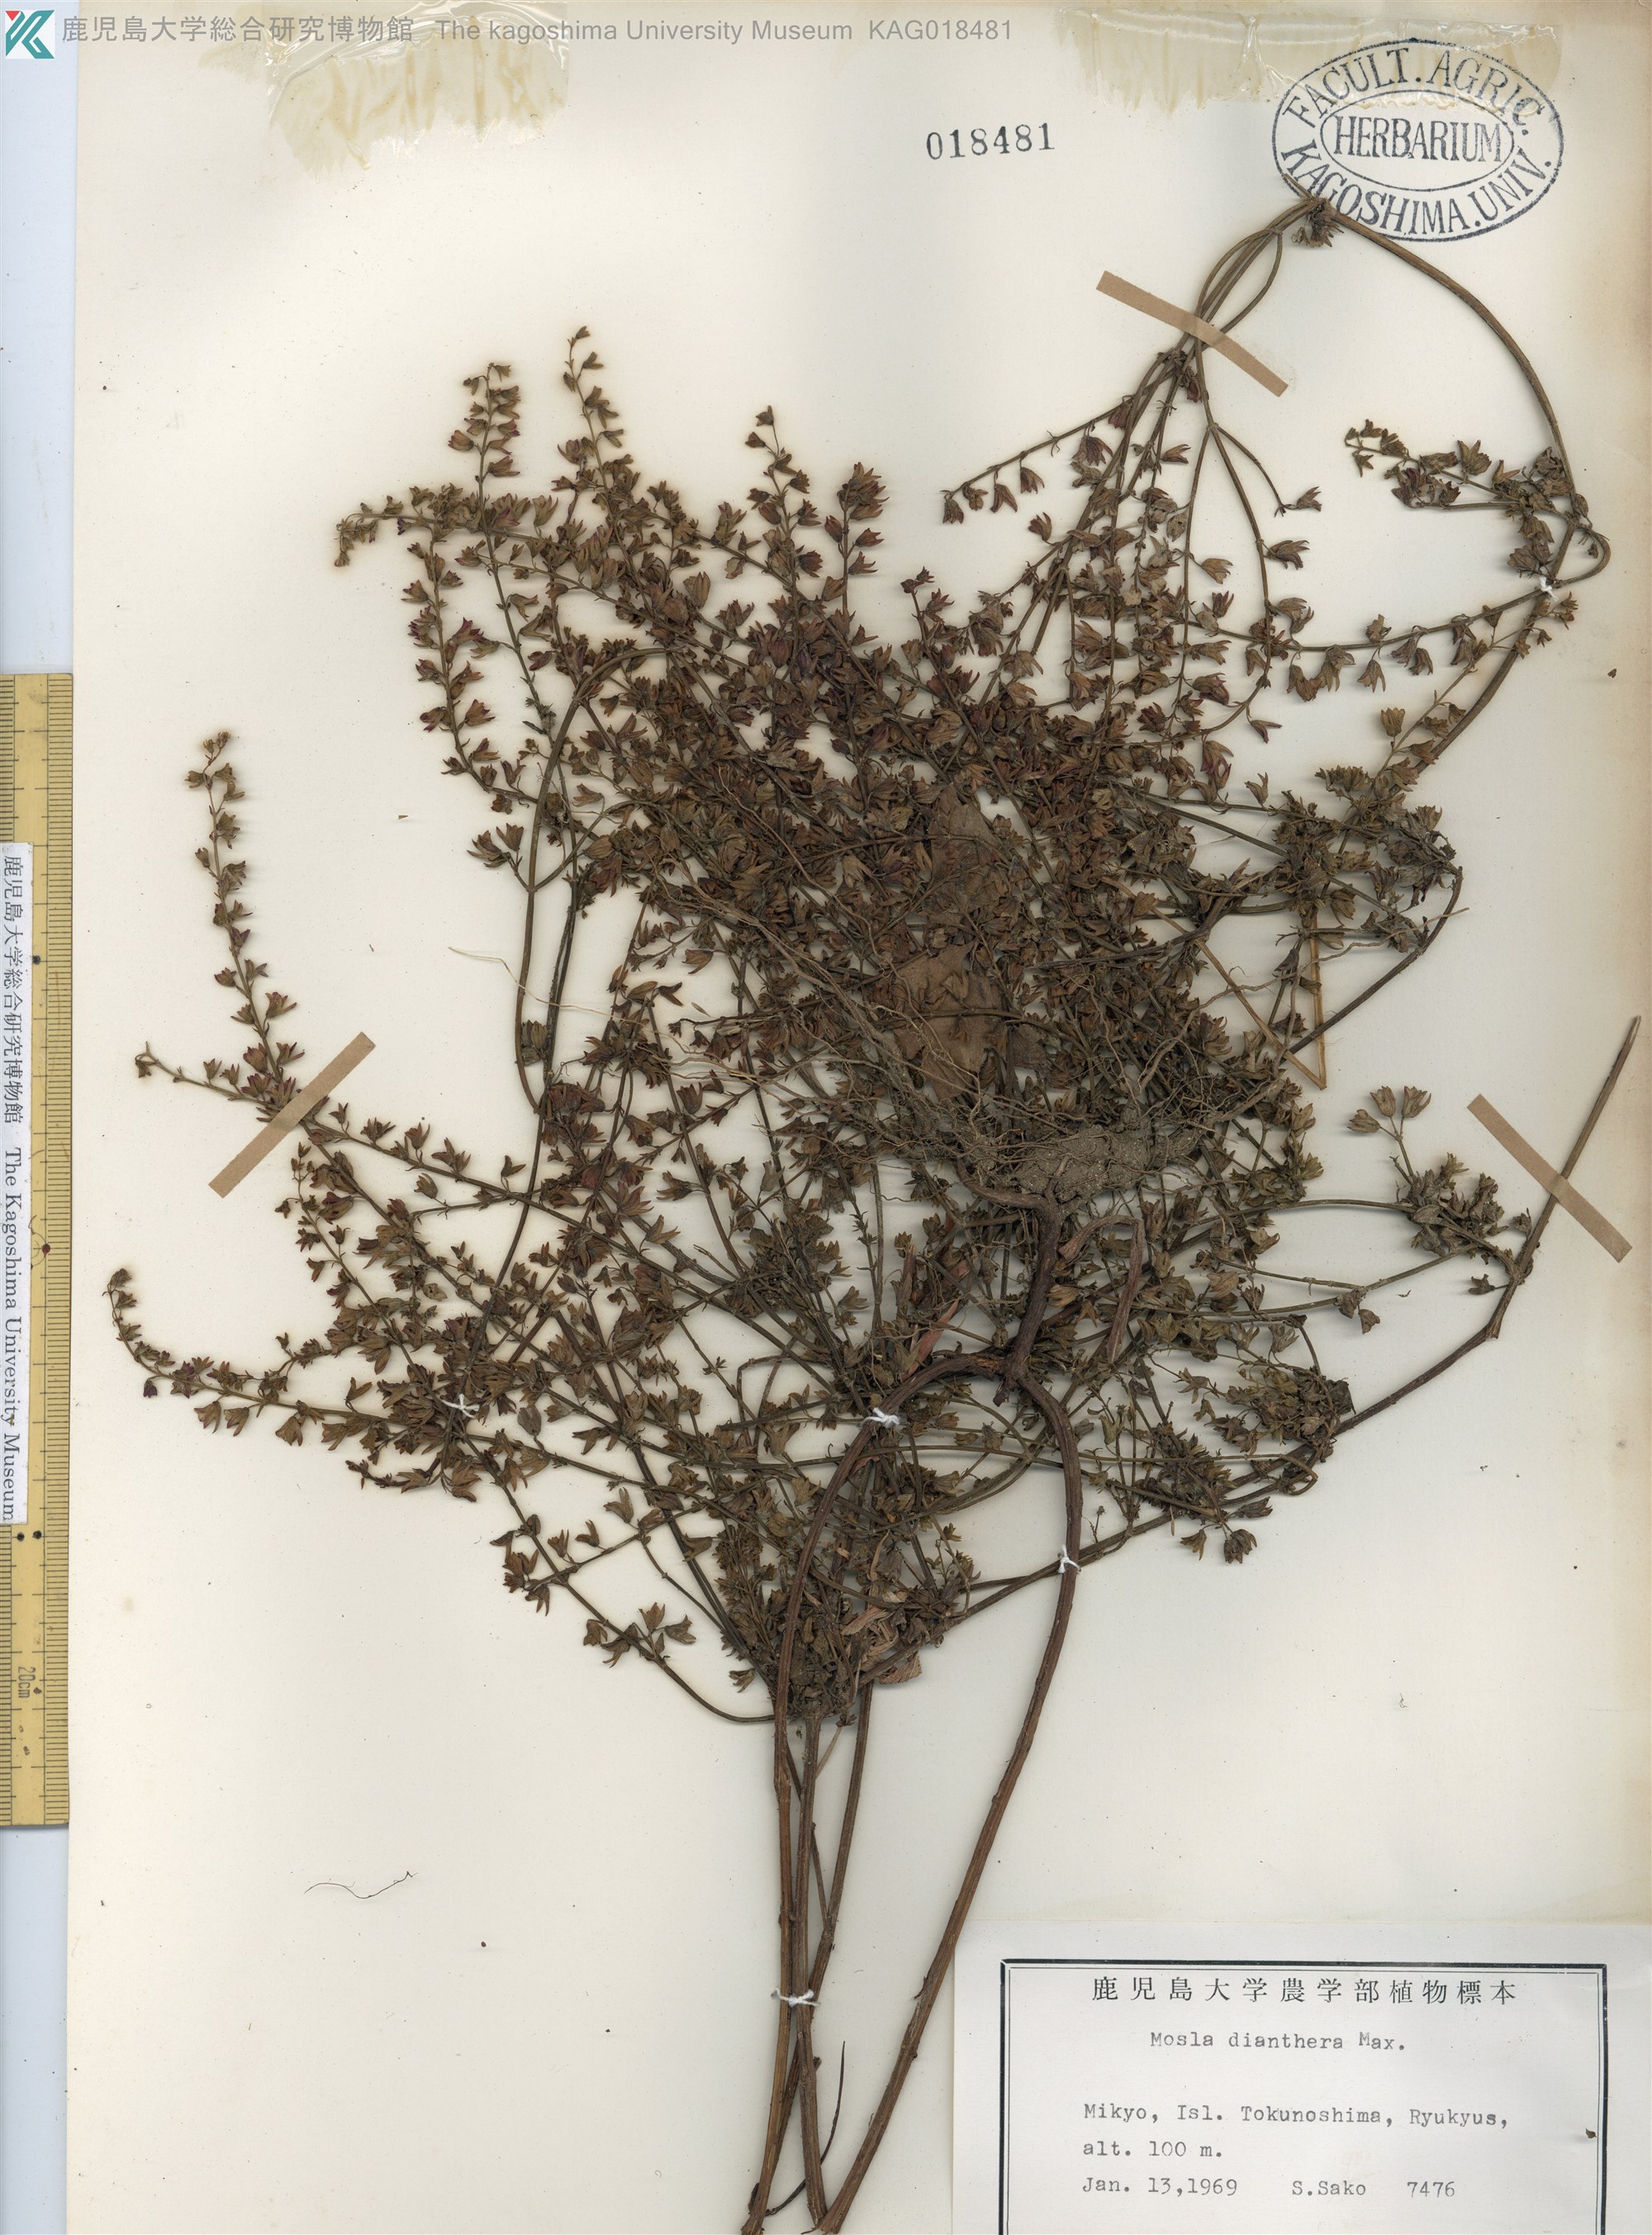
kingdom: Plantae
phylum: Tracheophyta
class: Magnoliopsida
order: Lamiales
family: Lamiaceae
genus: Mosla
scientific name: Mosla dianthera
